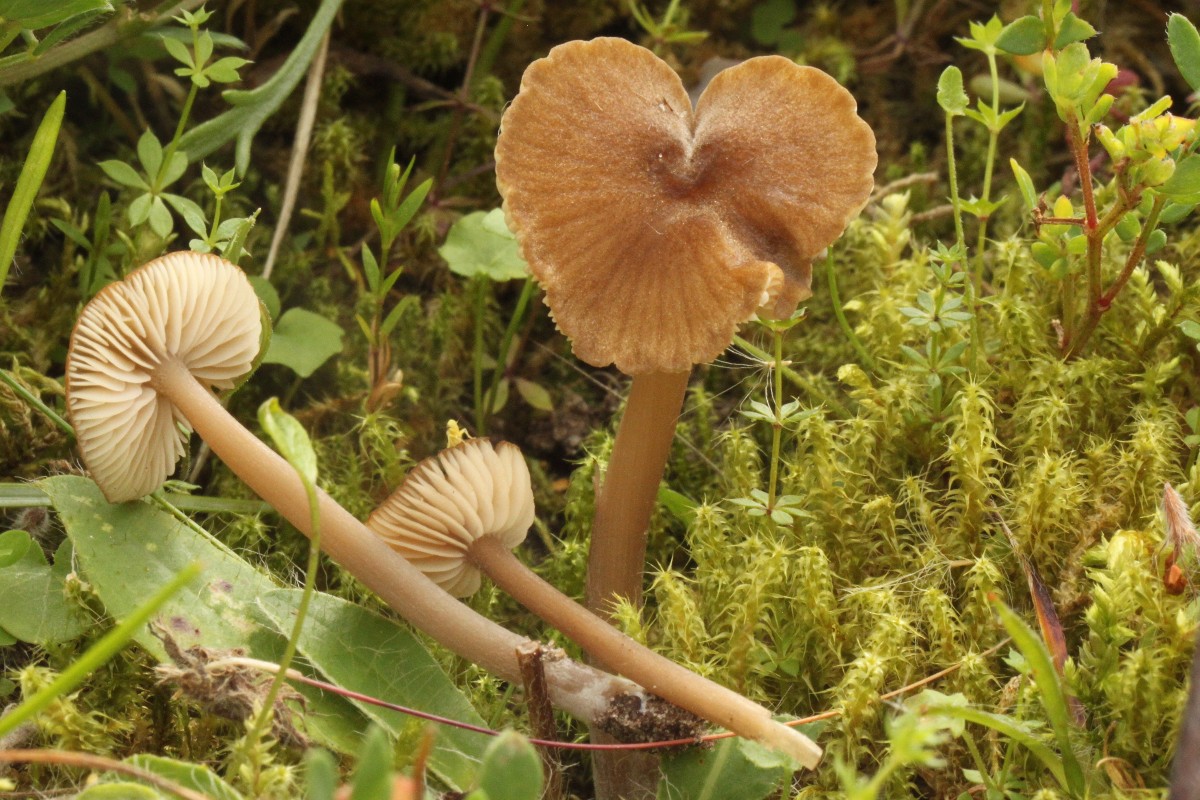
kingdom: Fungi
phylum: Basidiomycota
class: Agaricomycetes
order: Agaricales
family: Entolomataceae
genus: Entoloma
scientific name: Entoloma longistriatum
